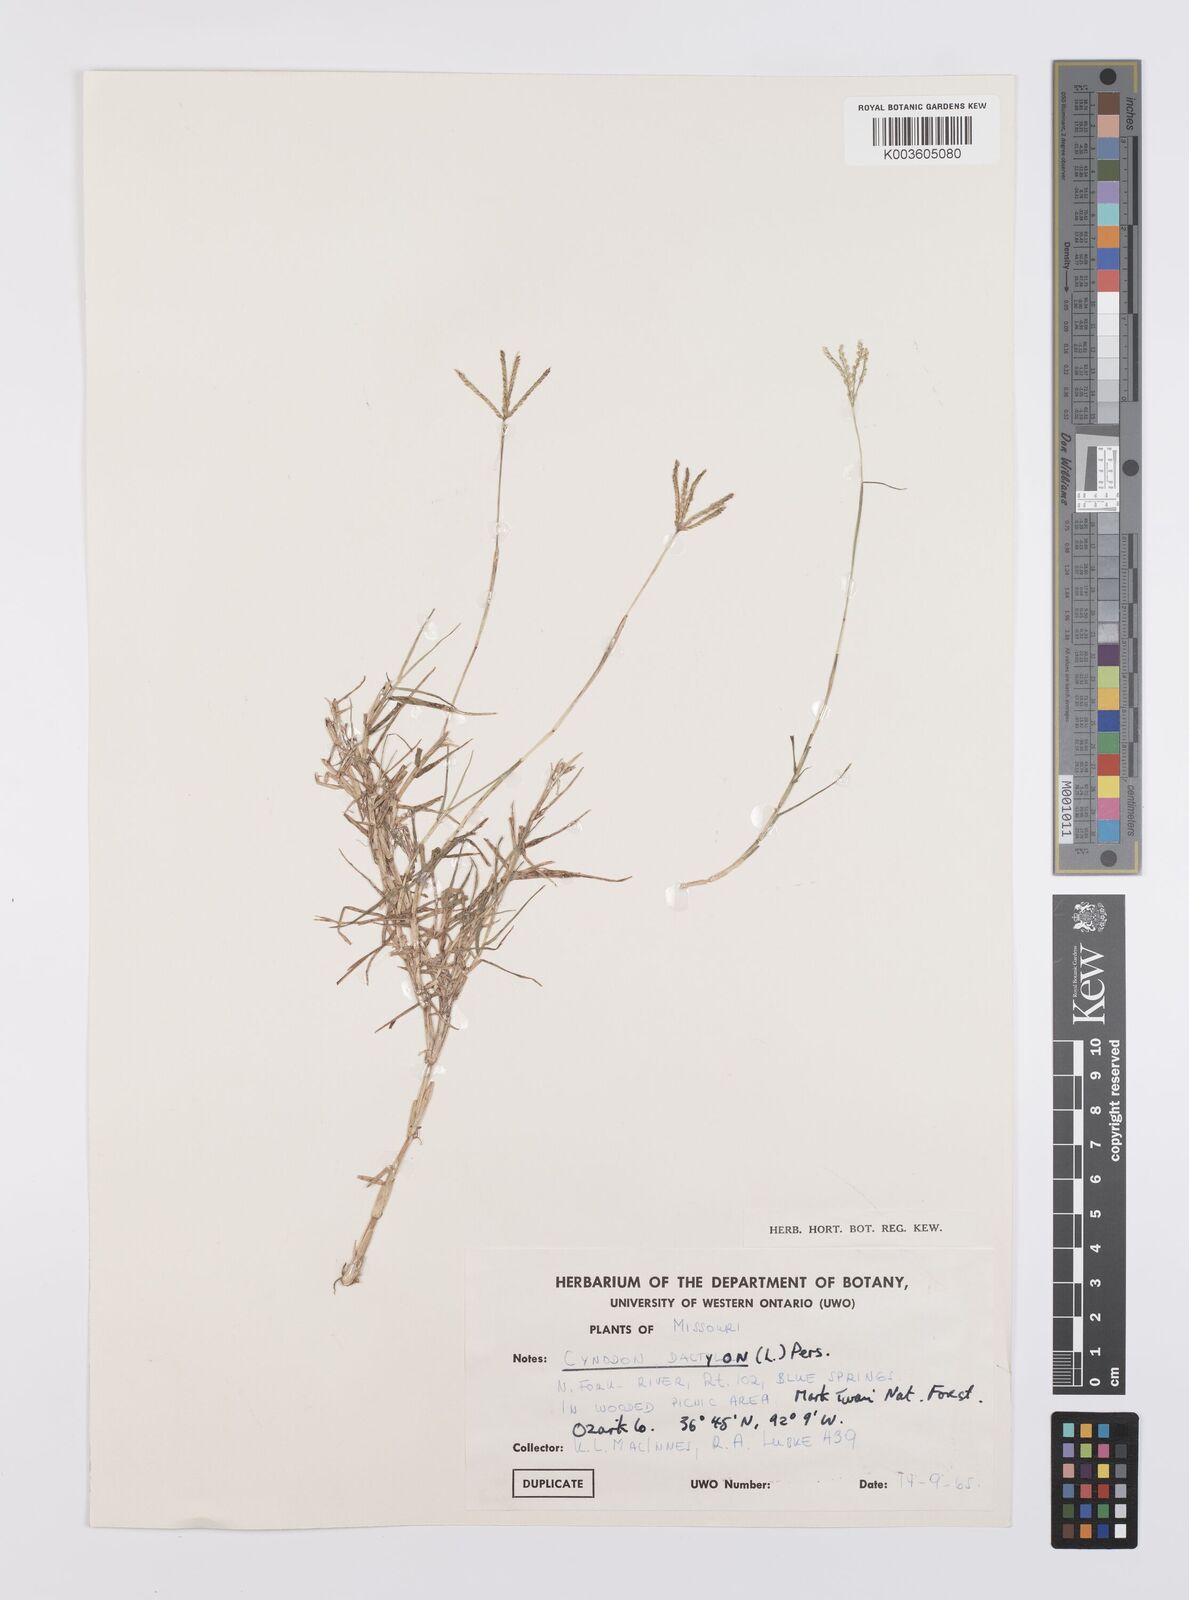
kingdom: Plantae
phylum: Tracheophyta
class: Liliopsida
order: Poales
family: Poaceae
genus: Cynodon
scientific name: Cynodon dactylon
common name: Bermuda grass
